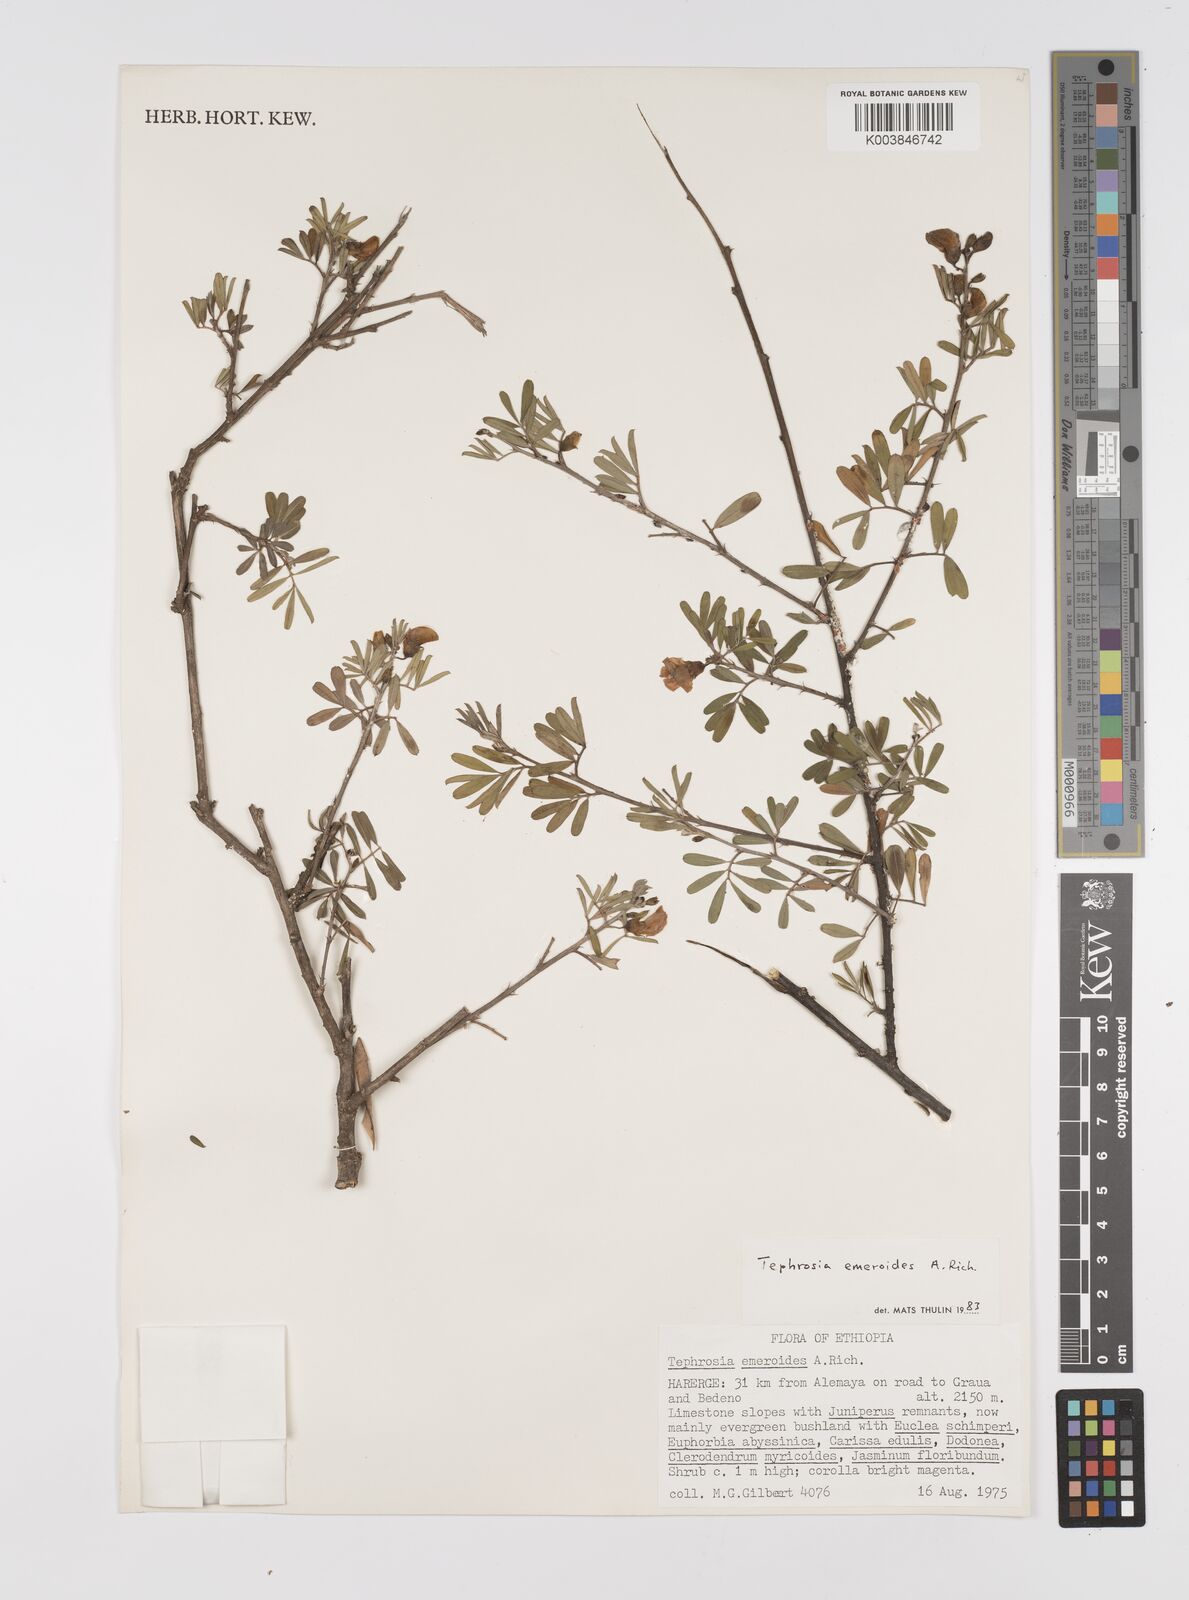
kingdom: Plantae
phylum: Tracheophyta
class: Magnoliopsida
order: Fabales
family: Fabaceae
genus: Tephrosia
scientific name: Tephrosia emeroides
